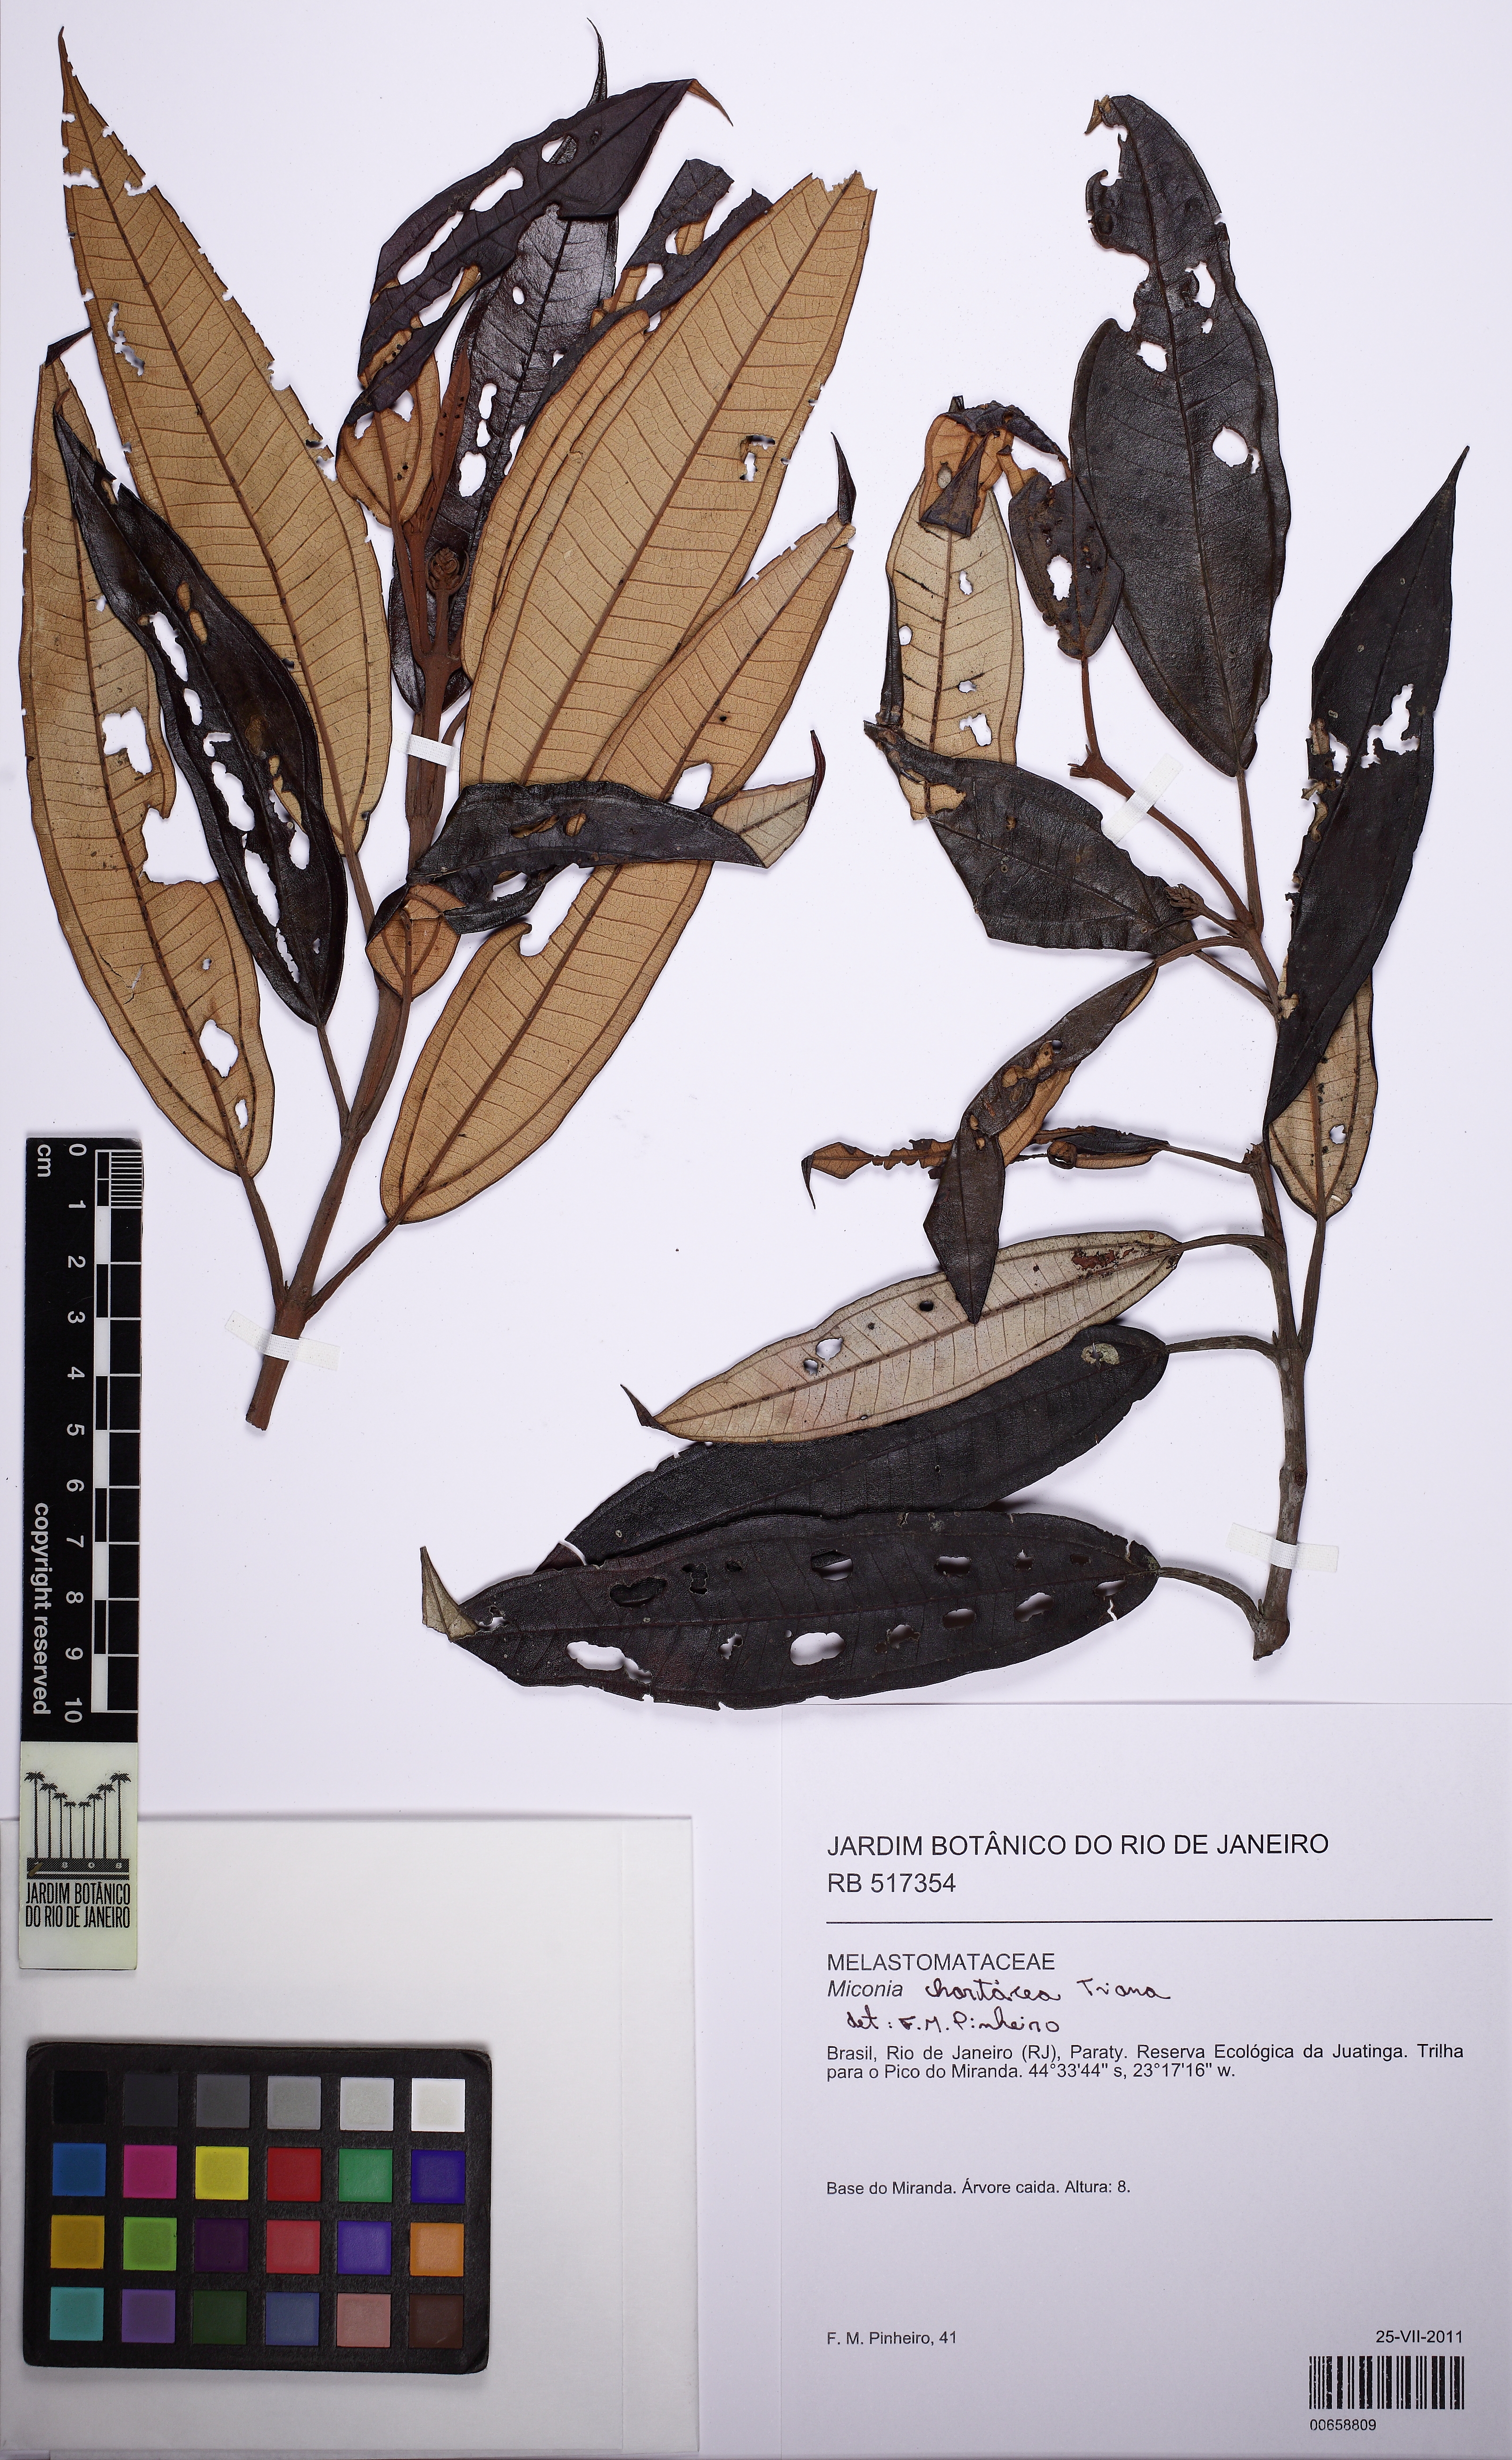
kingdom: Plantae
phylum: Tracheophyta
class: Magnoliopsida
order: Myrtales
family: Melastomataceae
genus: Miconia
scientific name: Miconia chartacea
